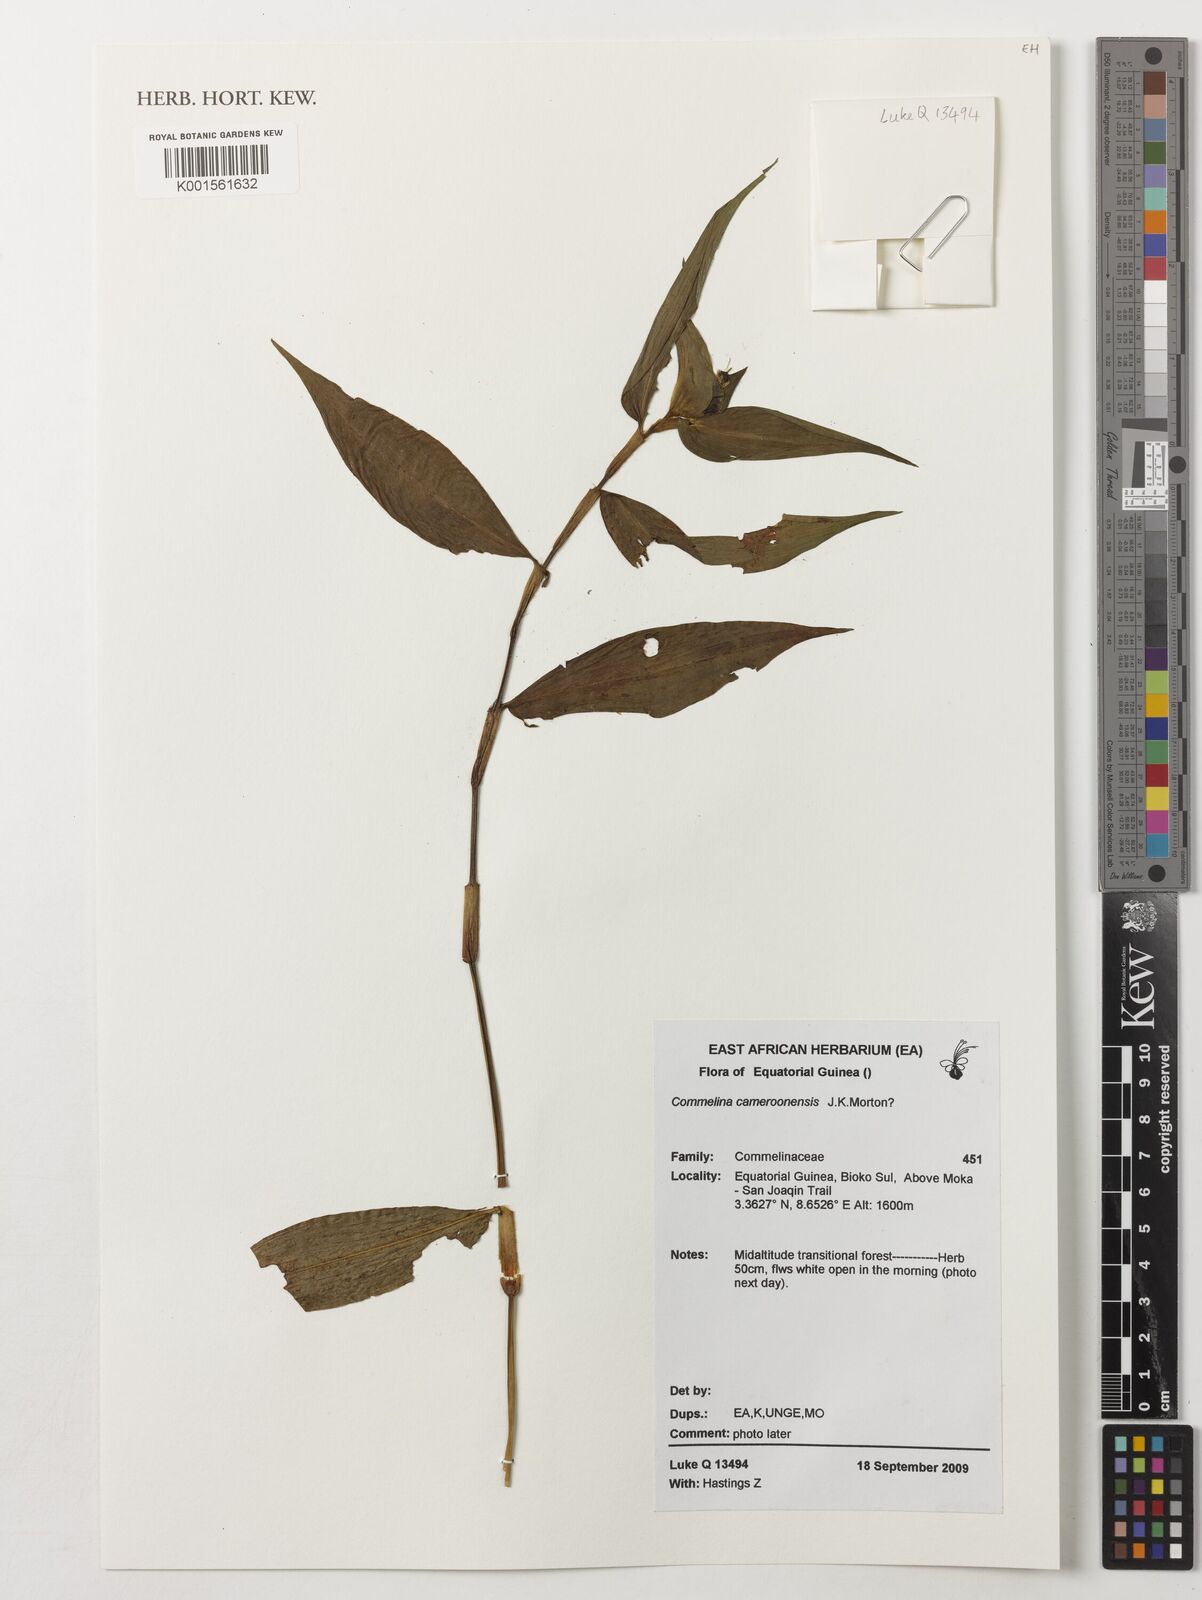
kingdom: Plantae
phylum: Tracheophyta
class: Liliopsida
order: Commelinales
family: Commelinaceae
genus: Commelina
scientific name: Commelina cameroonensis
